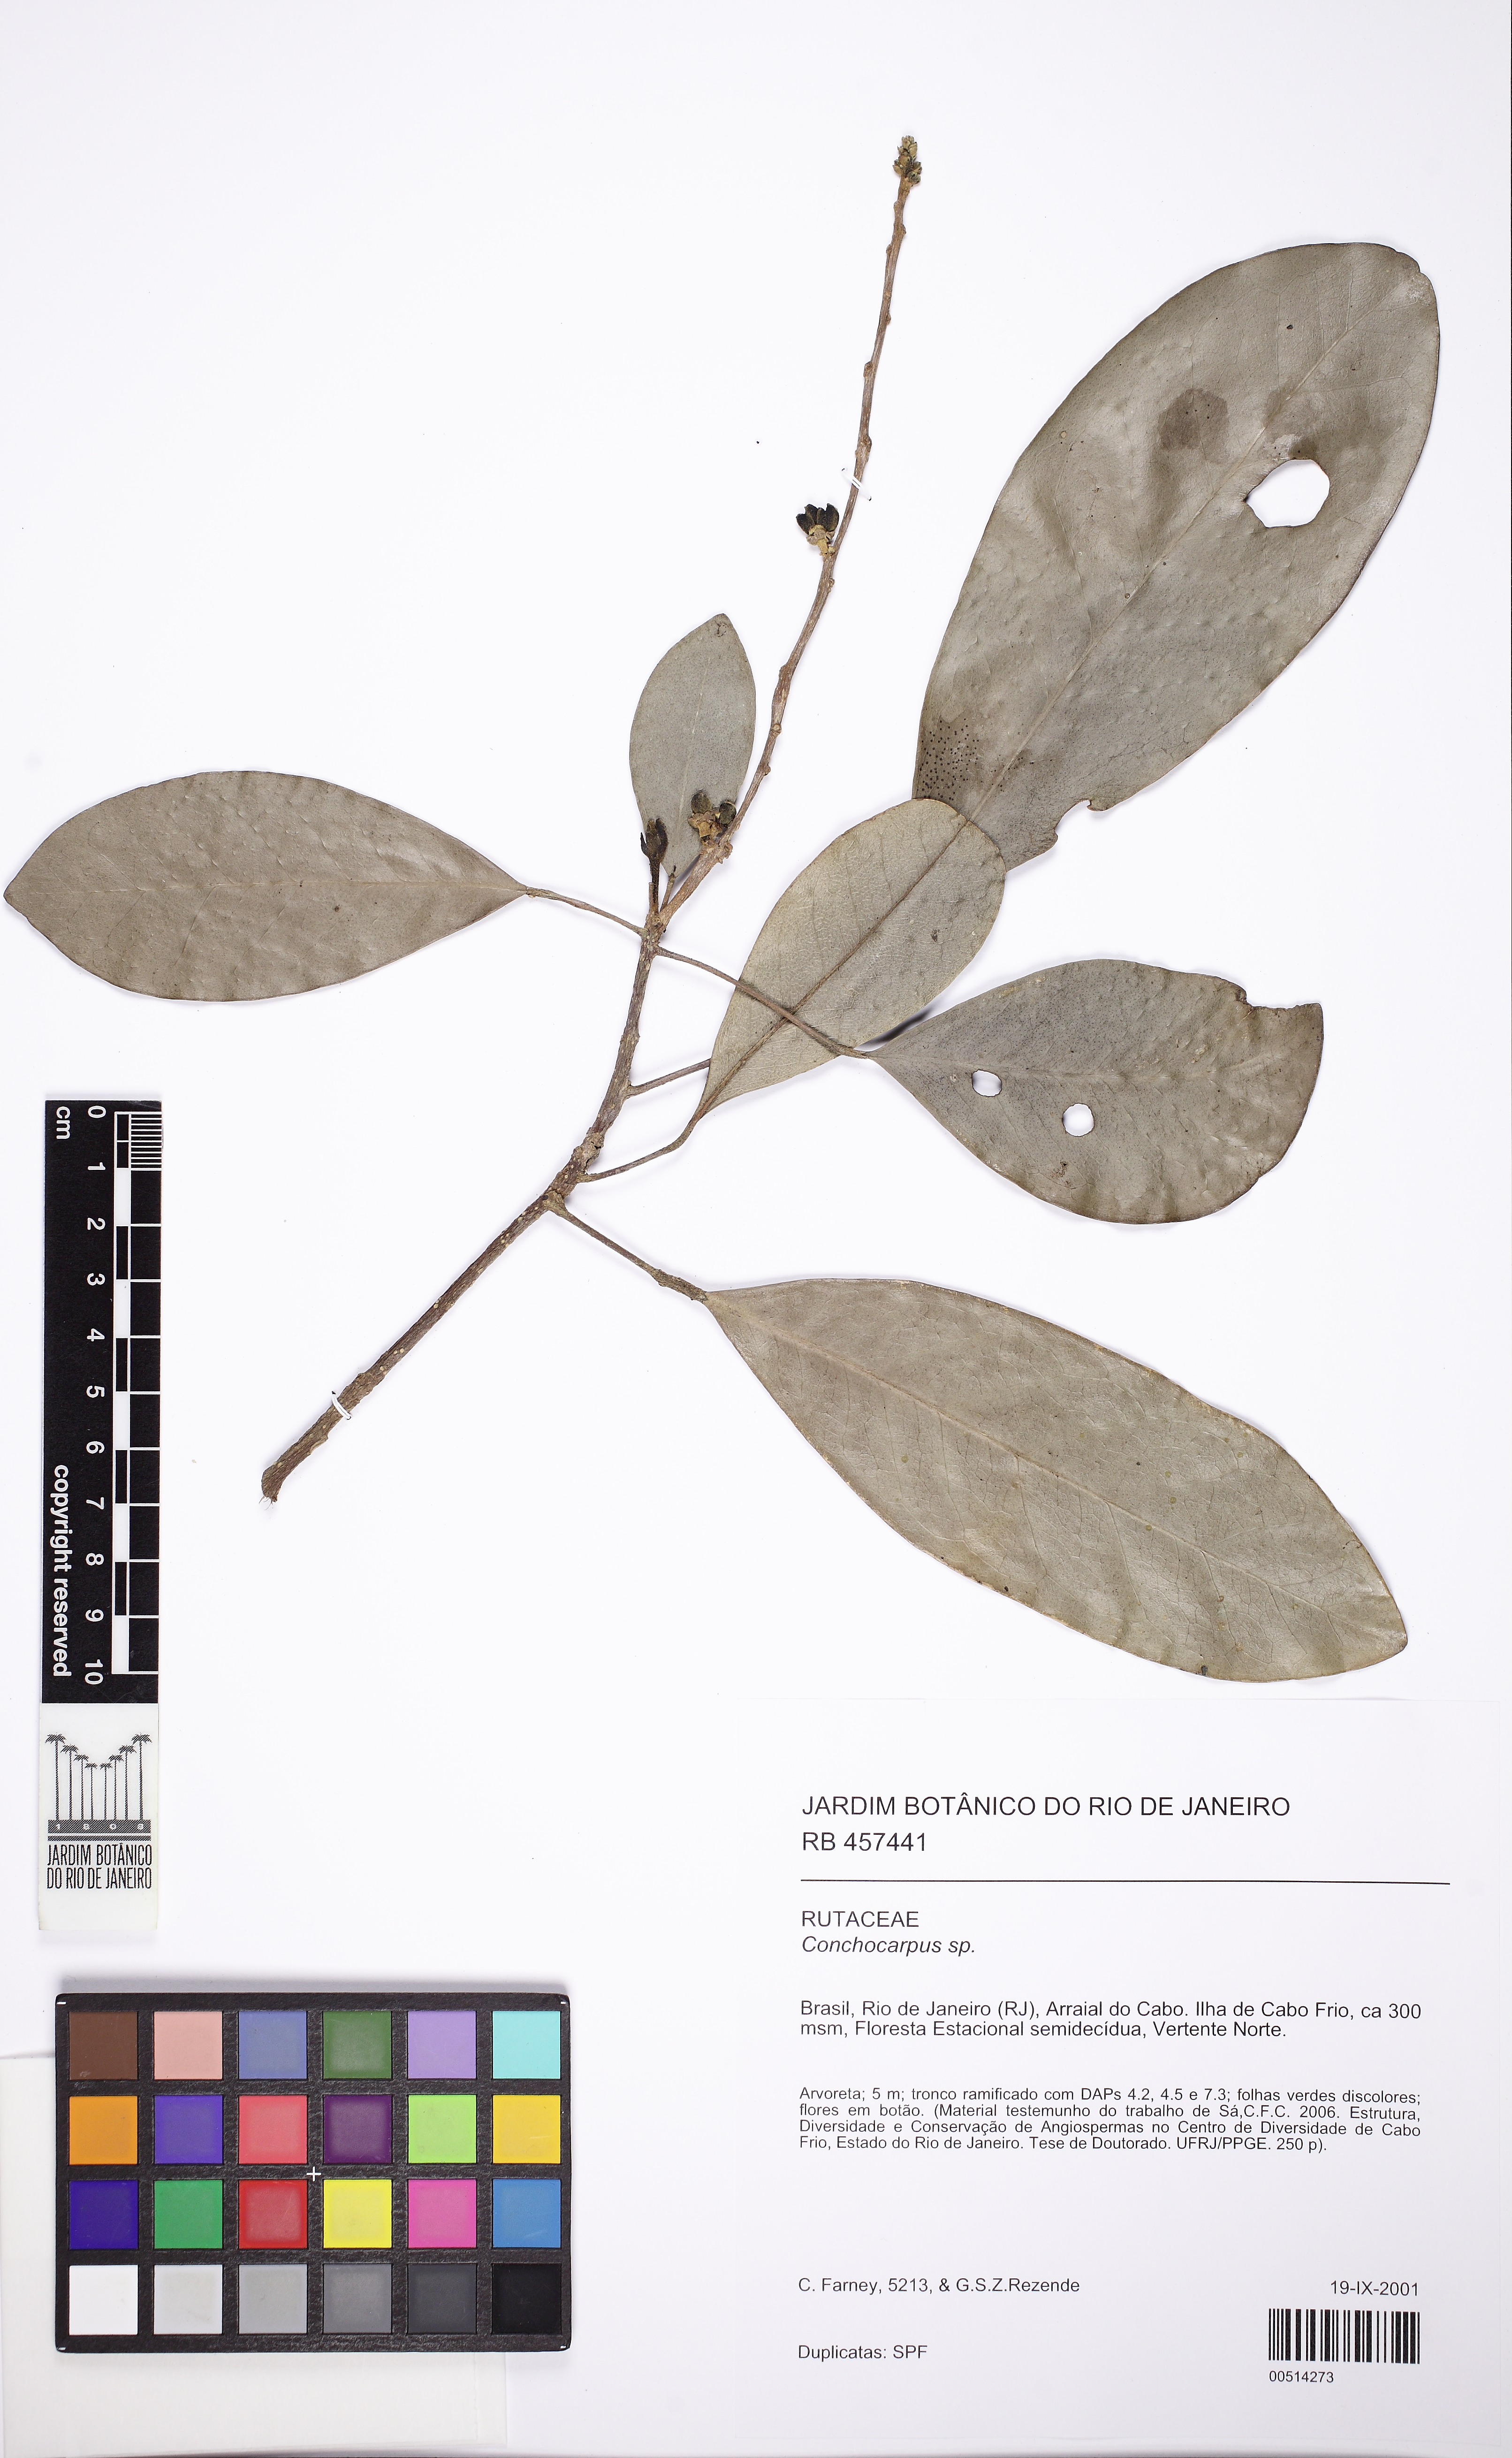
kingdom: Plantae
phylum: Tracheophyta
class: Magnoliopsida
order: Sapindales
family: Rutaceae
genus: Conchocarpus
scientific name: Conchocarpus ovatus
